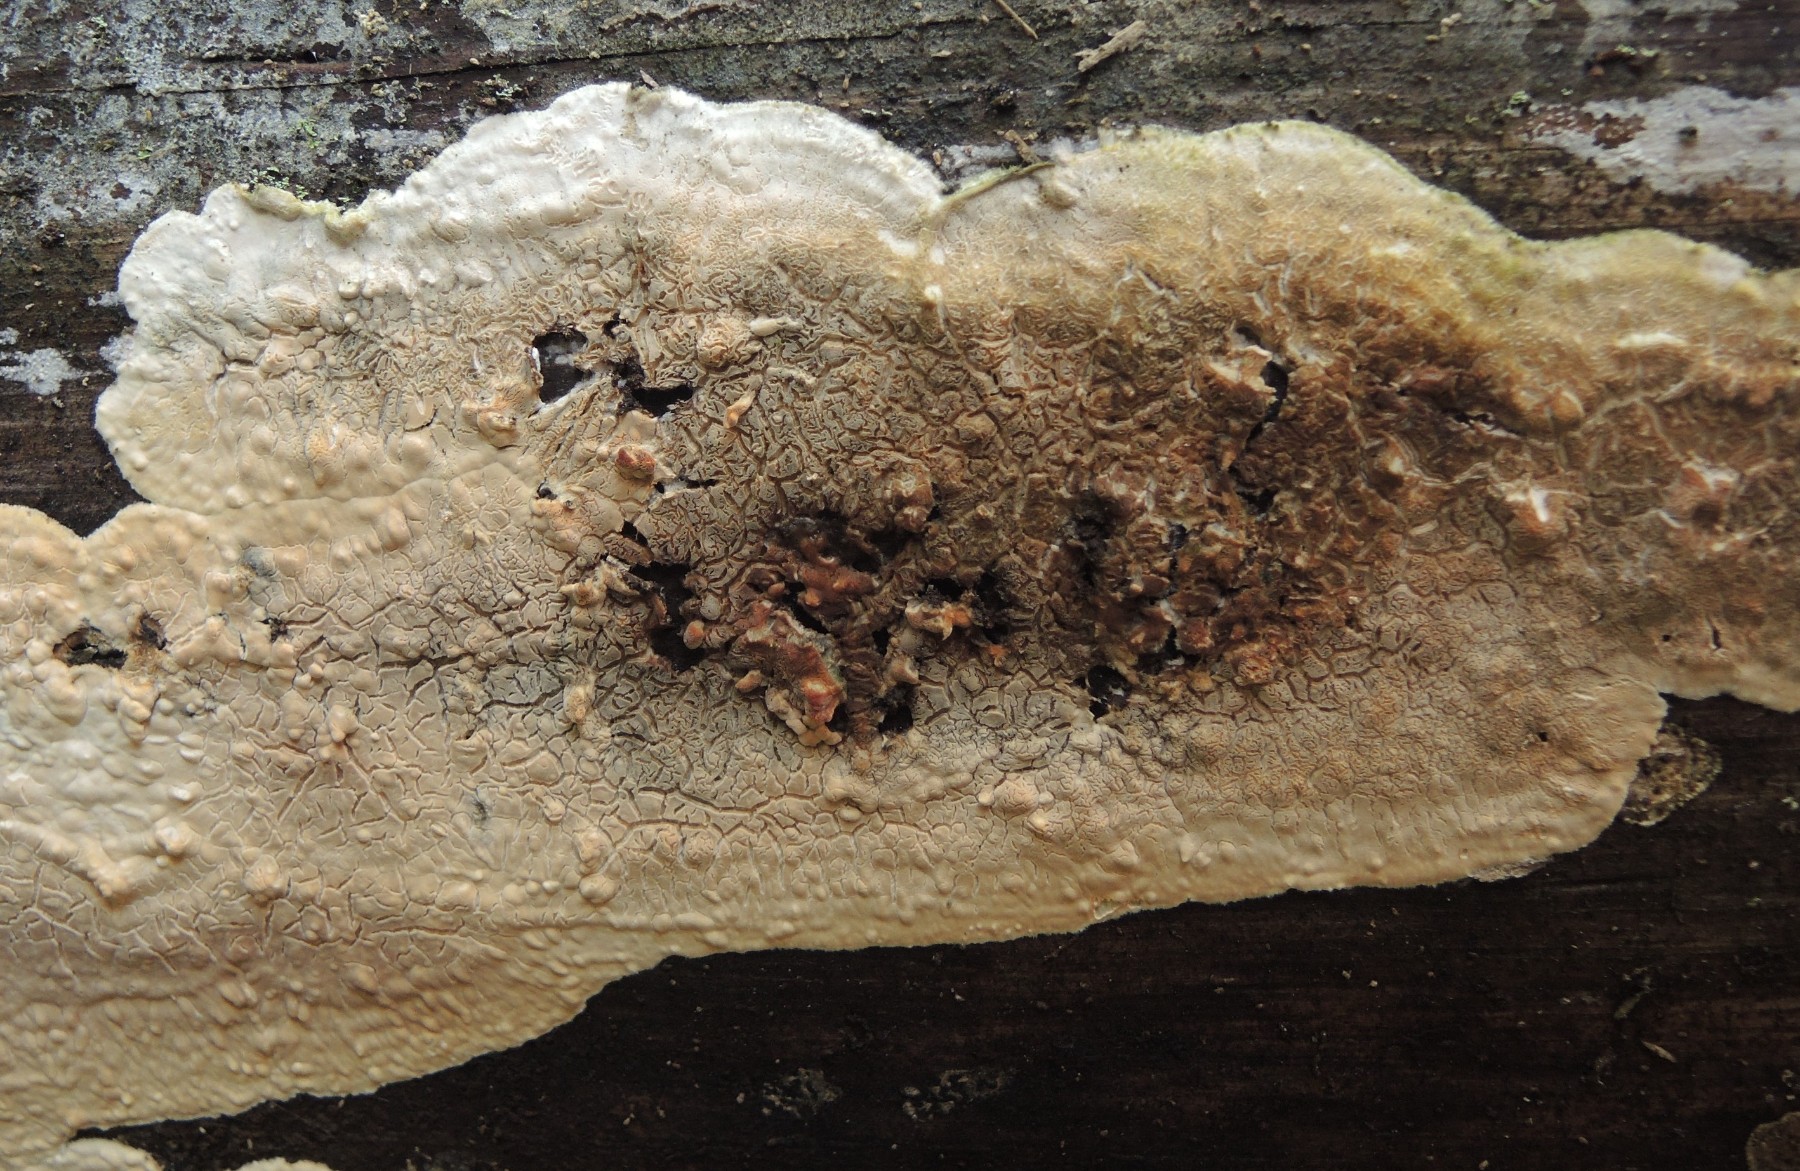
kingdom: Fungi
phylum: Basidiomycota
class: Agaricomycetes
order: Polyporales
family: Dacryobolaceae
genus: Dacryobolus
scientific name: Dacryobolus karstenii
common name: glat vulkanskorpe
